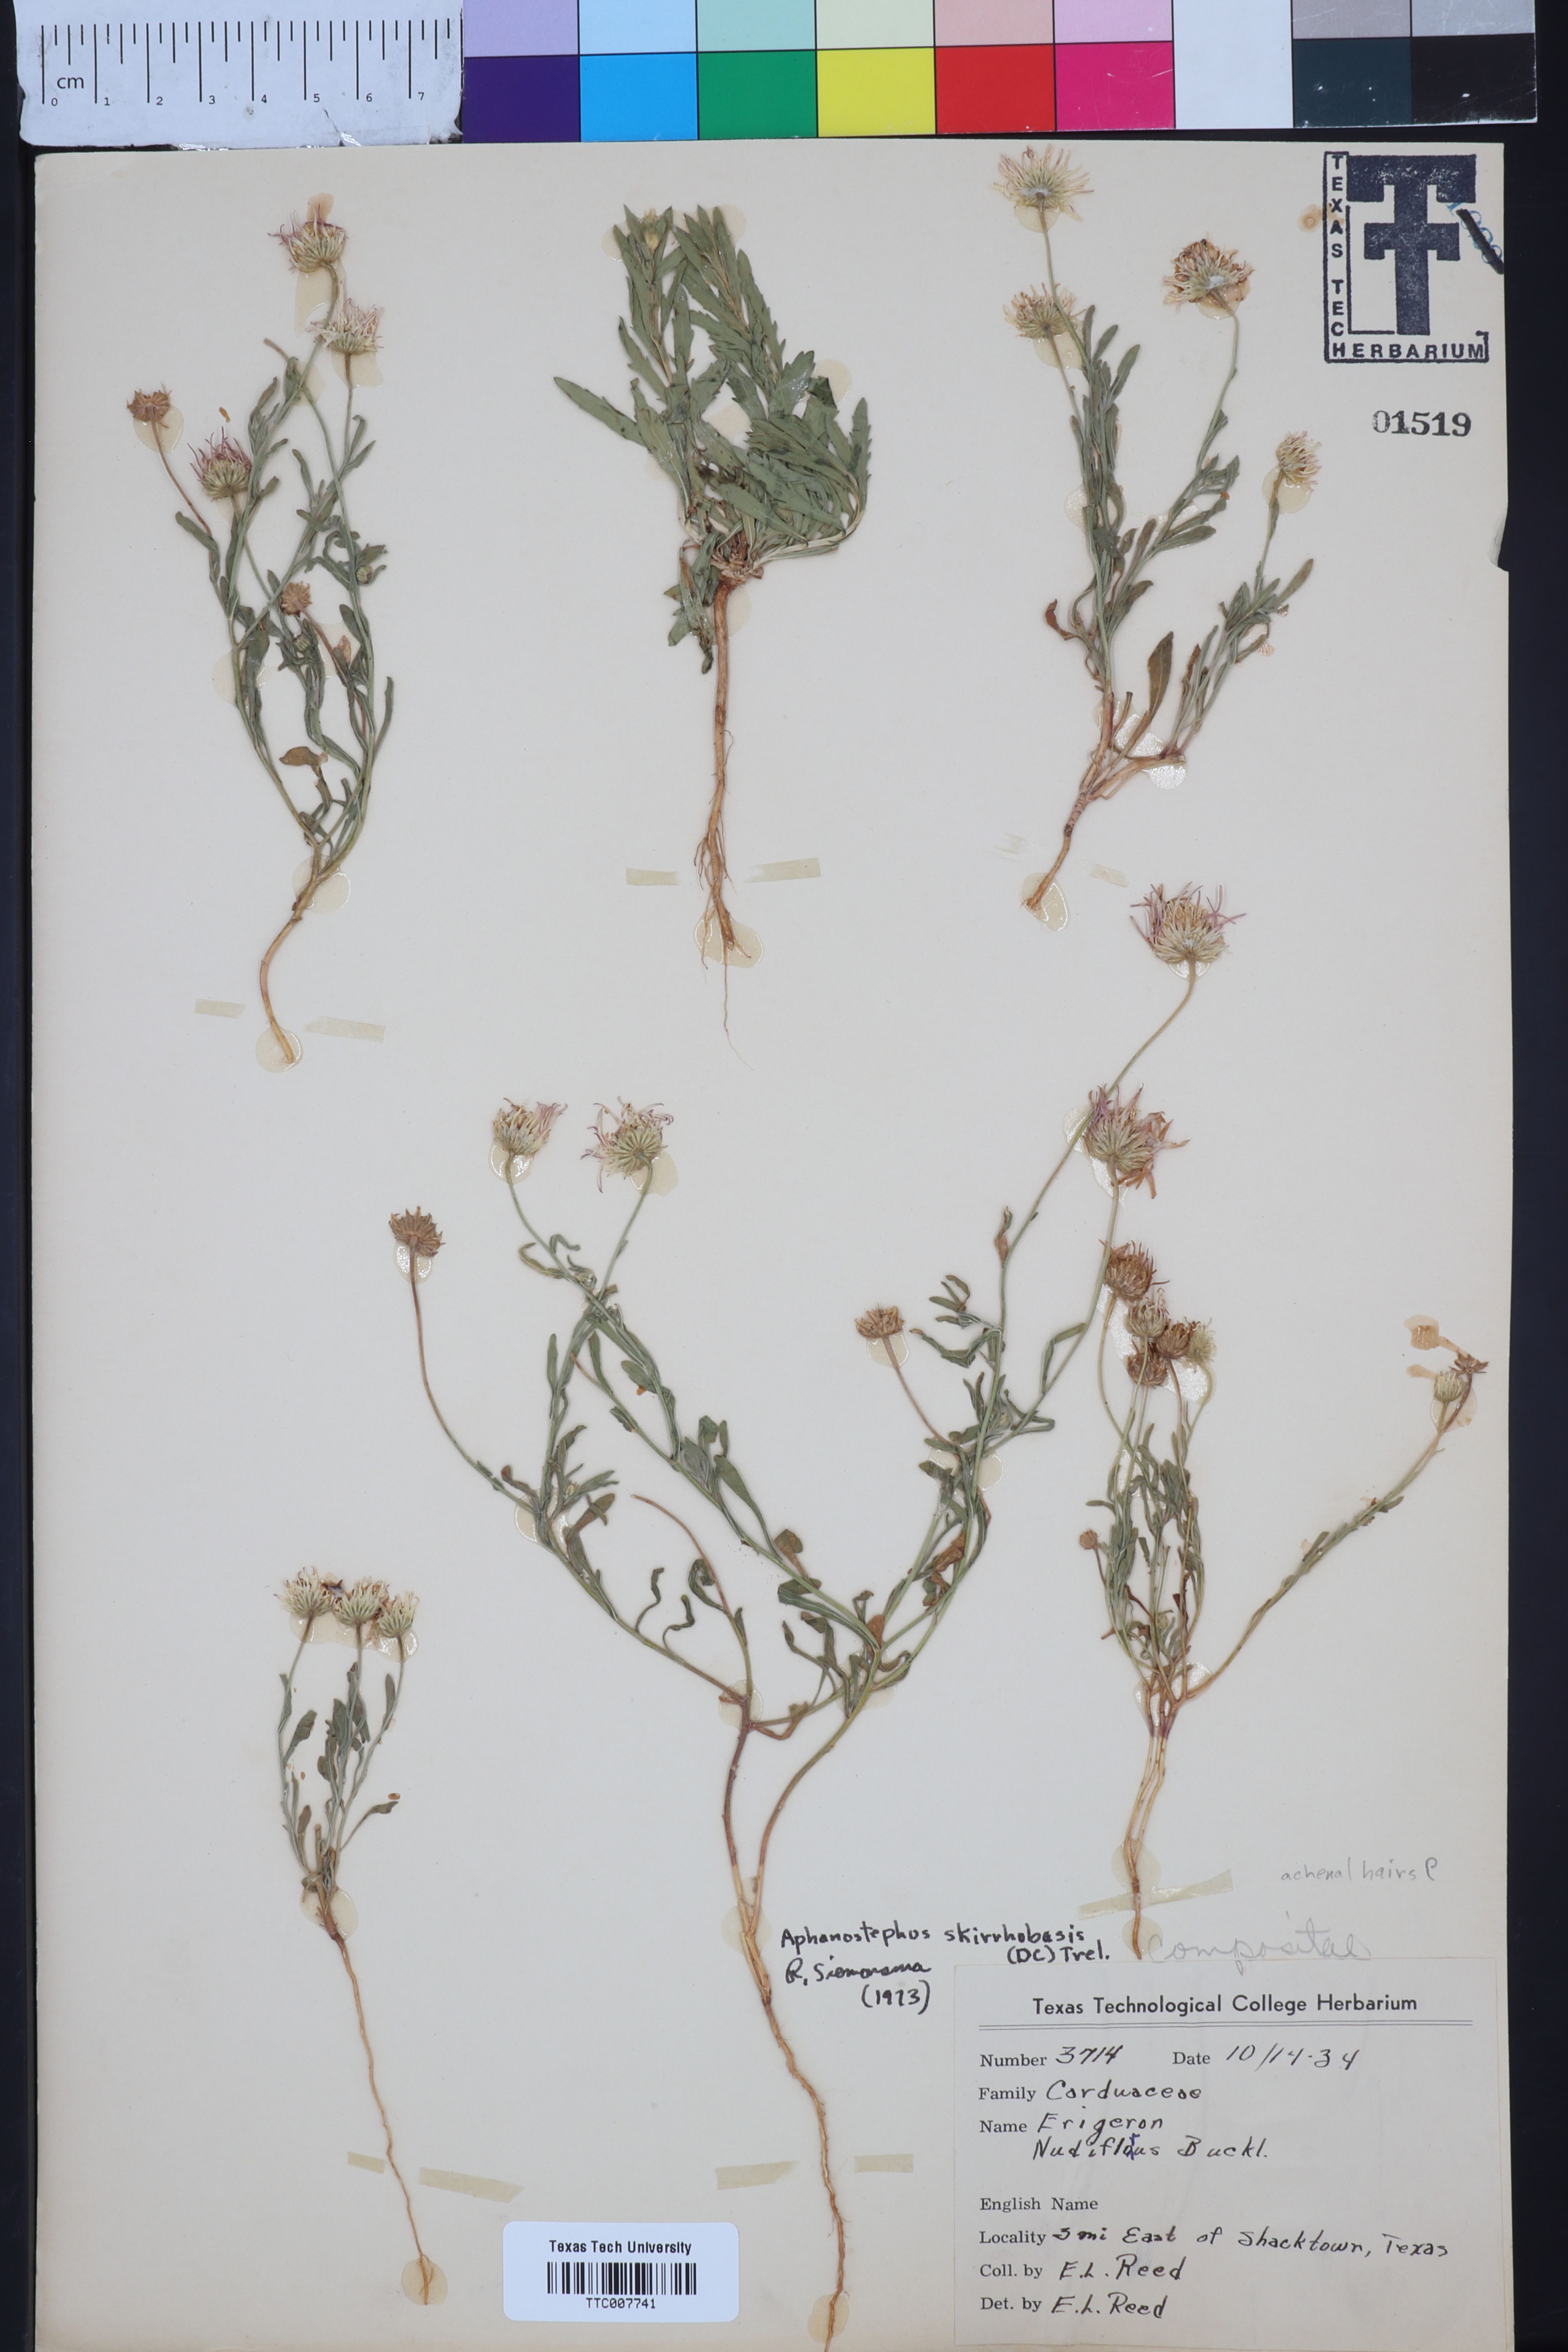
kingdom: Plantae
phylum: Tracheophyta
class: Magnoliopsida
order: Asterales
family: Asteraceae
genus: Aphanostephus
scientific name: Aphanostephus skirrhobasis
